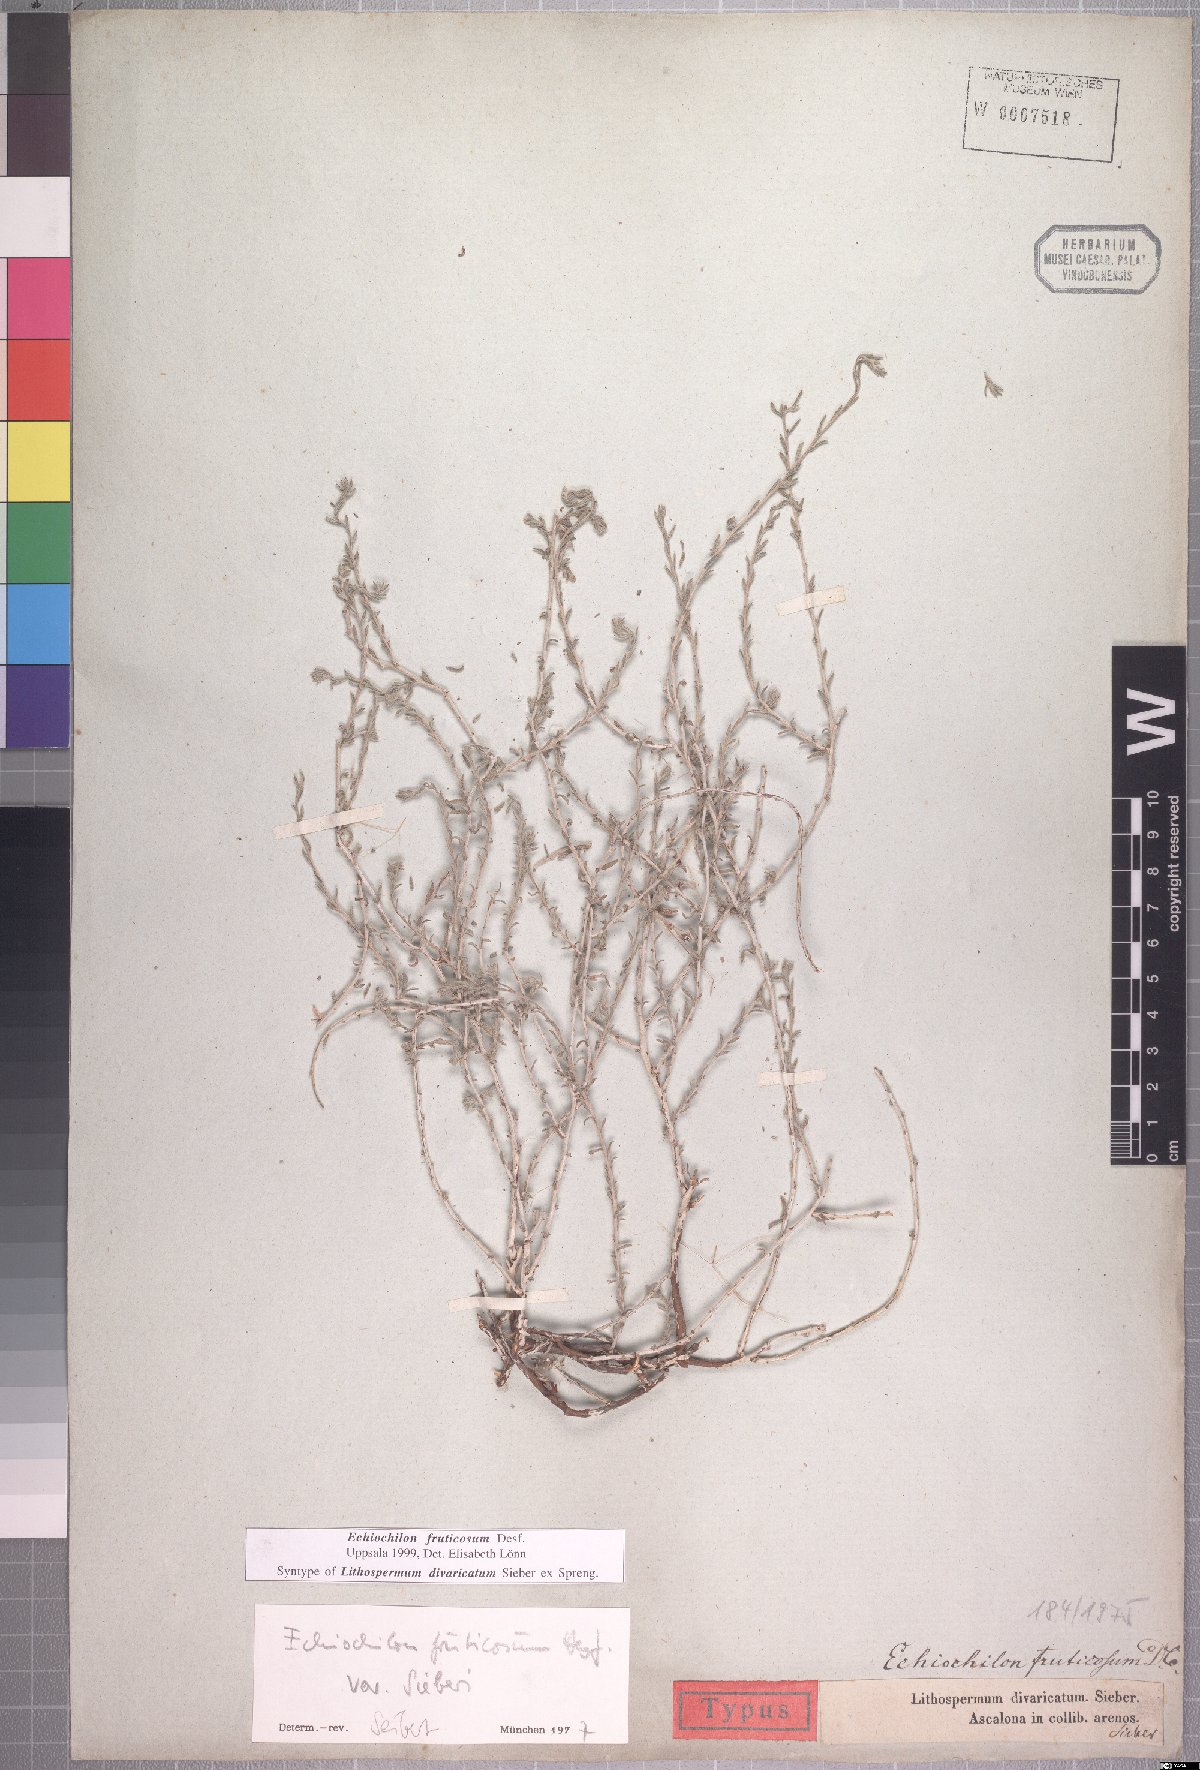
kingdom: Plantae
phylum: Tracheophyta
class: Magnoliopsida
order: Boraginales
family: Boraginaceae
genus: Echiochilon
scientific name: Echiochilon fruticosum
